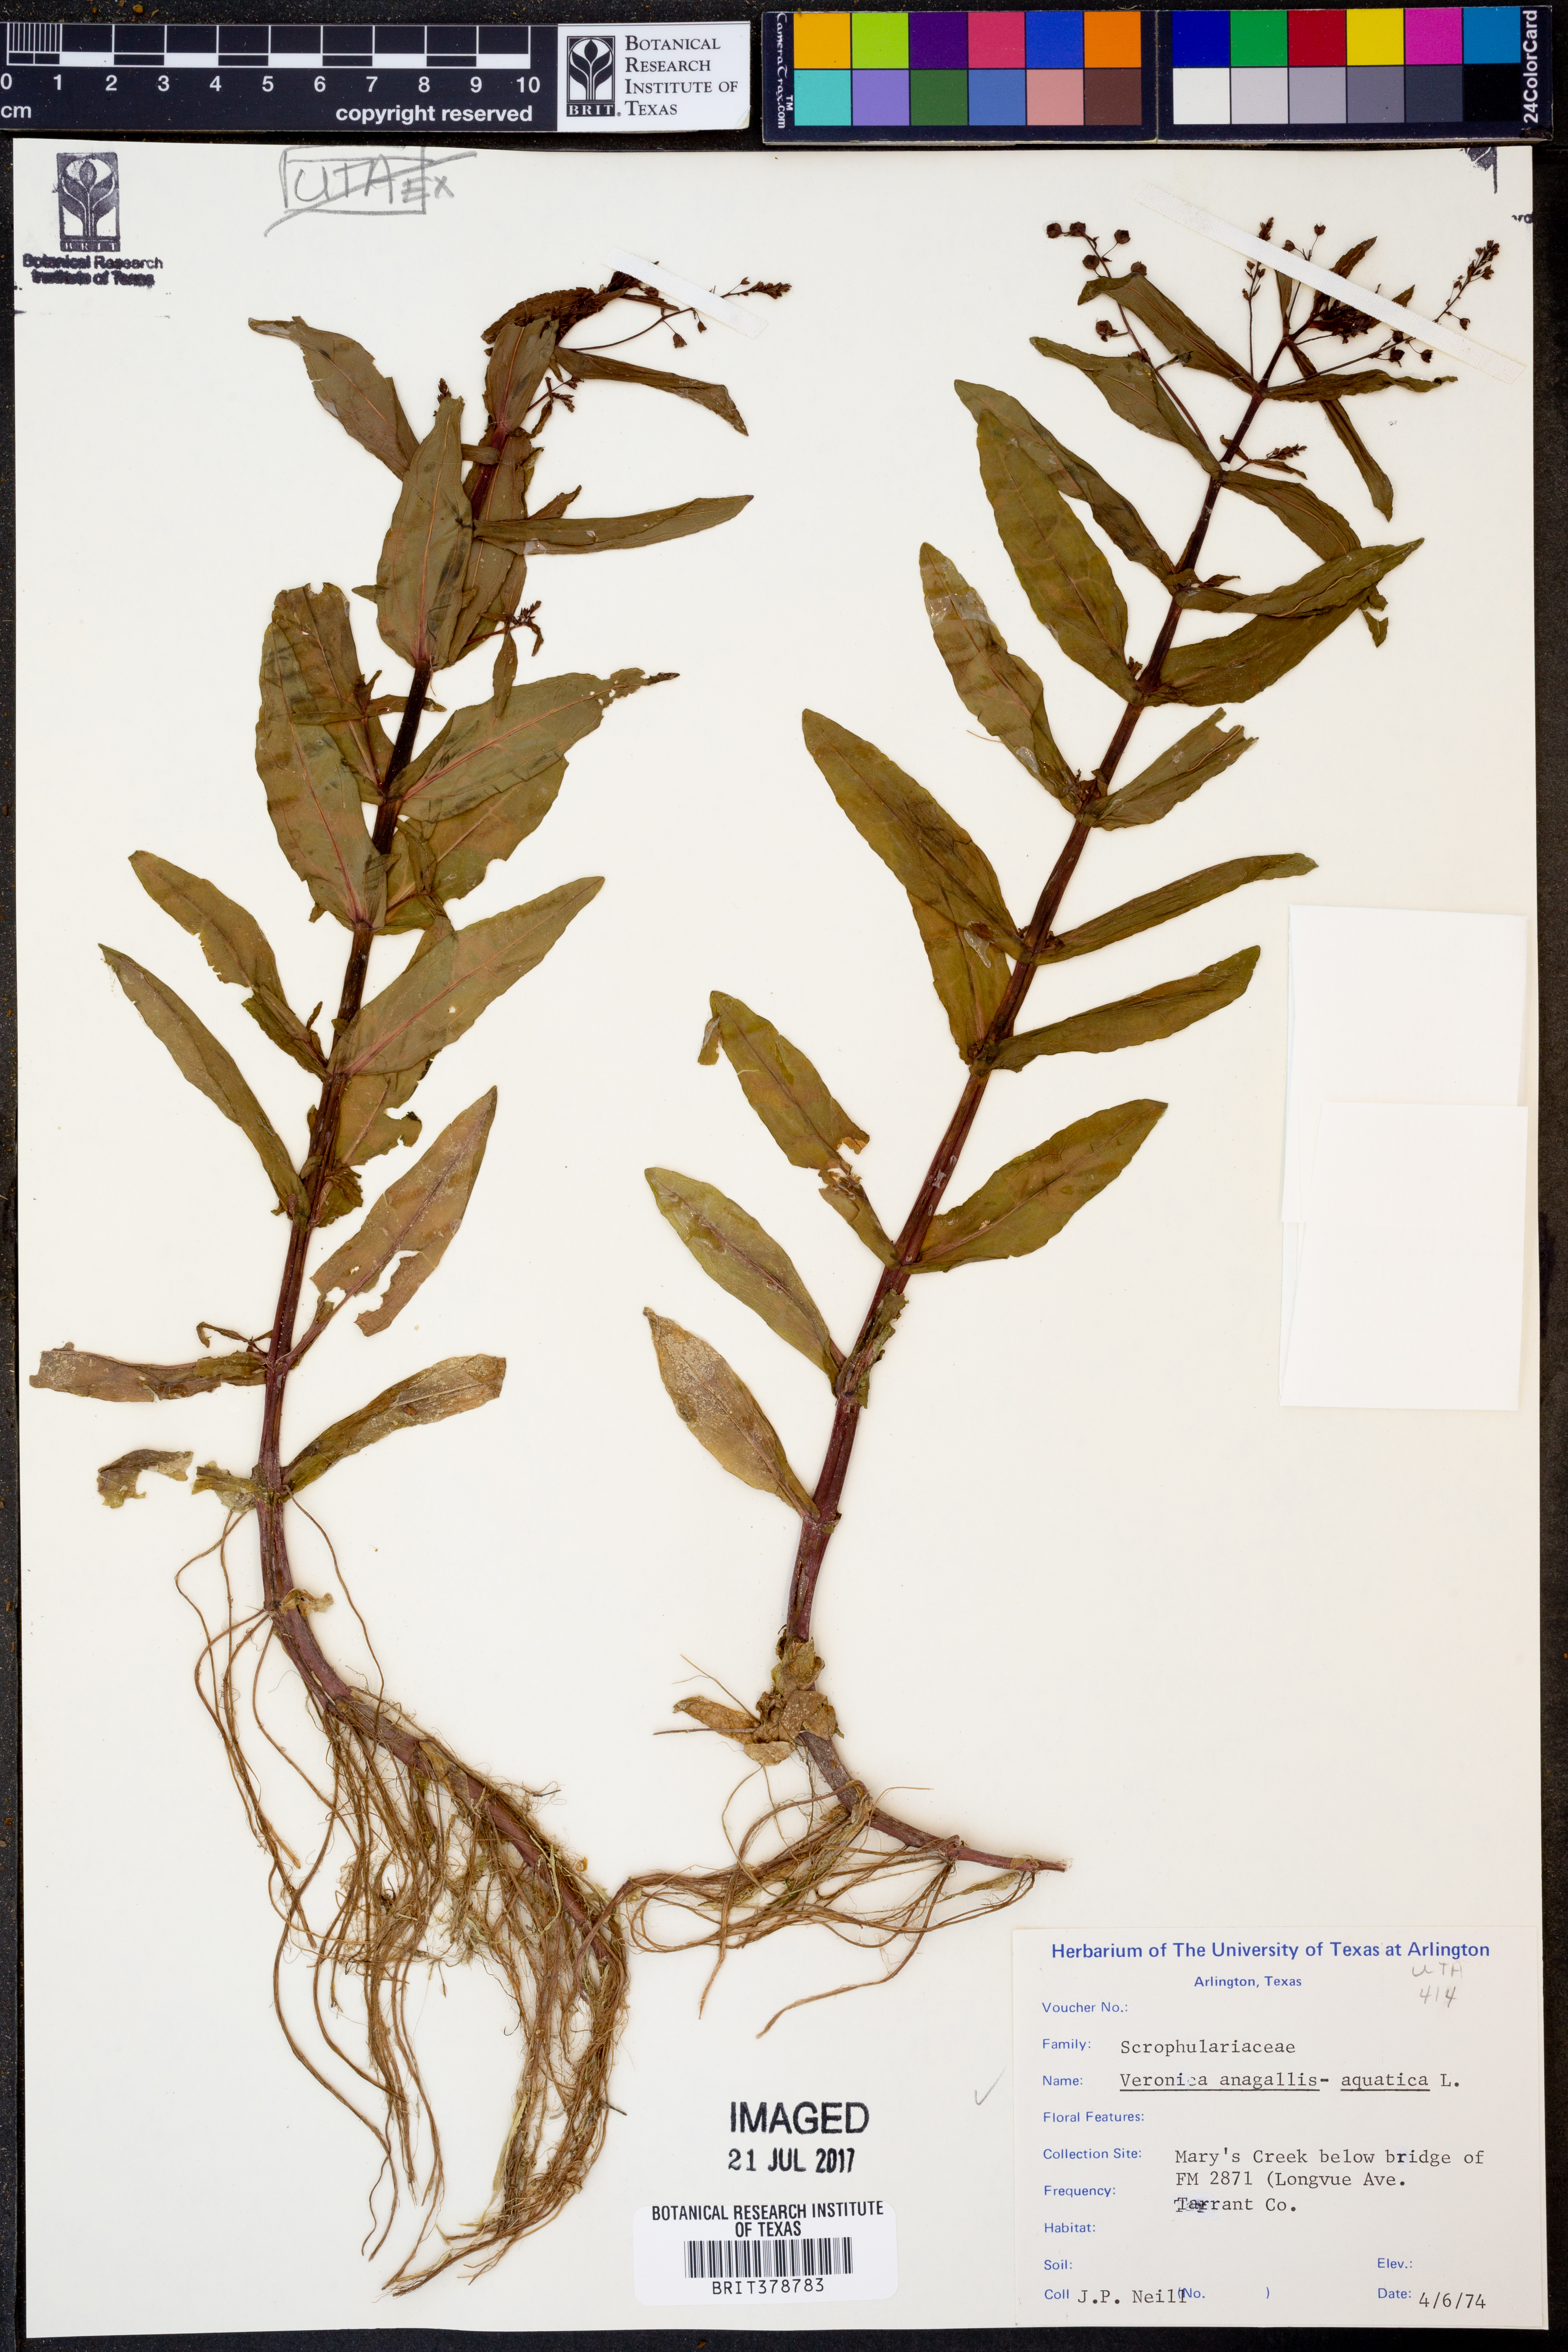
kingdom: Plantae
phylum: Tracheophyta
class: Magnoliopsida
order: Lamiales
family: Plantaginaceae
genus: Veronica
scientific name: Veronica anagallis-aquatica
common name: Water speedwell
